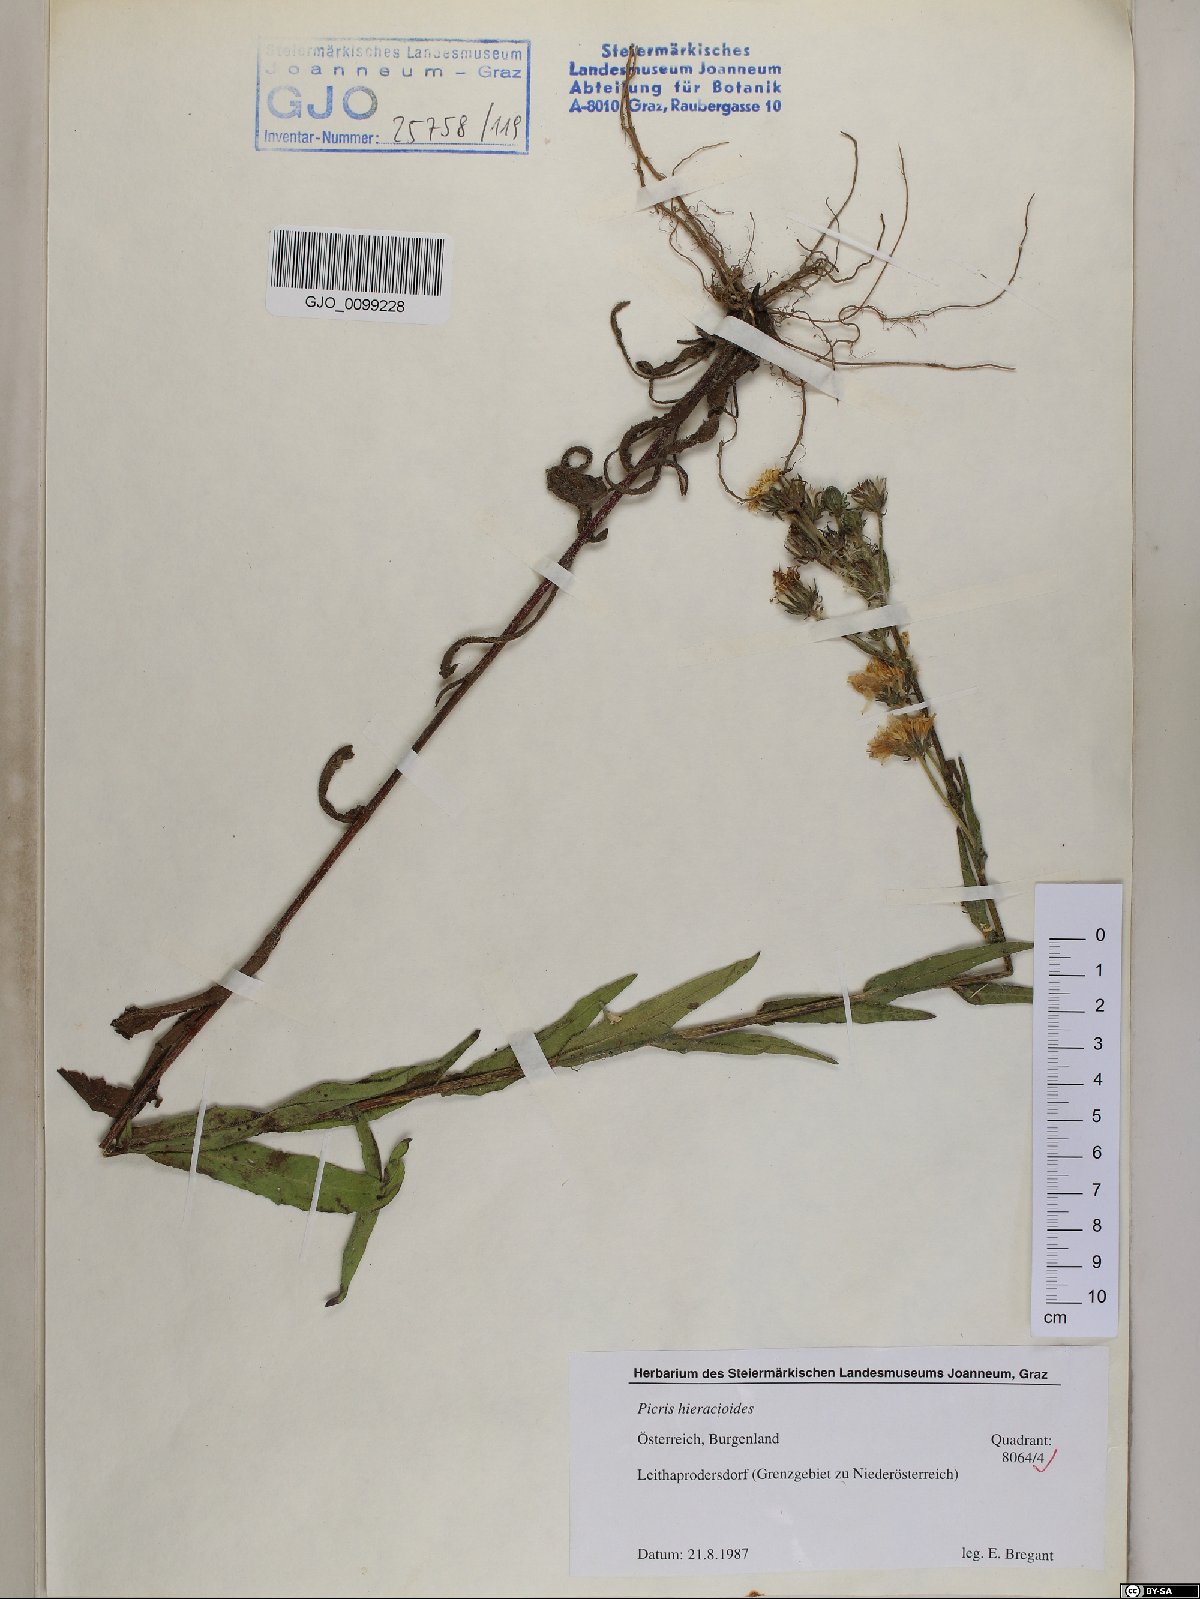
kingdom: Plantae
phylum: Tracheophyta
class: Magnoliopsida
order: Asterales
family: Asteraceae
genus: Picris
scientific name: Picris hieracioides
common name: Hawkweed oxtongue
